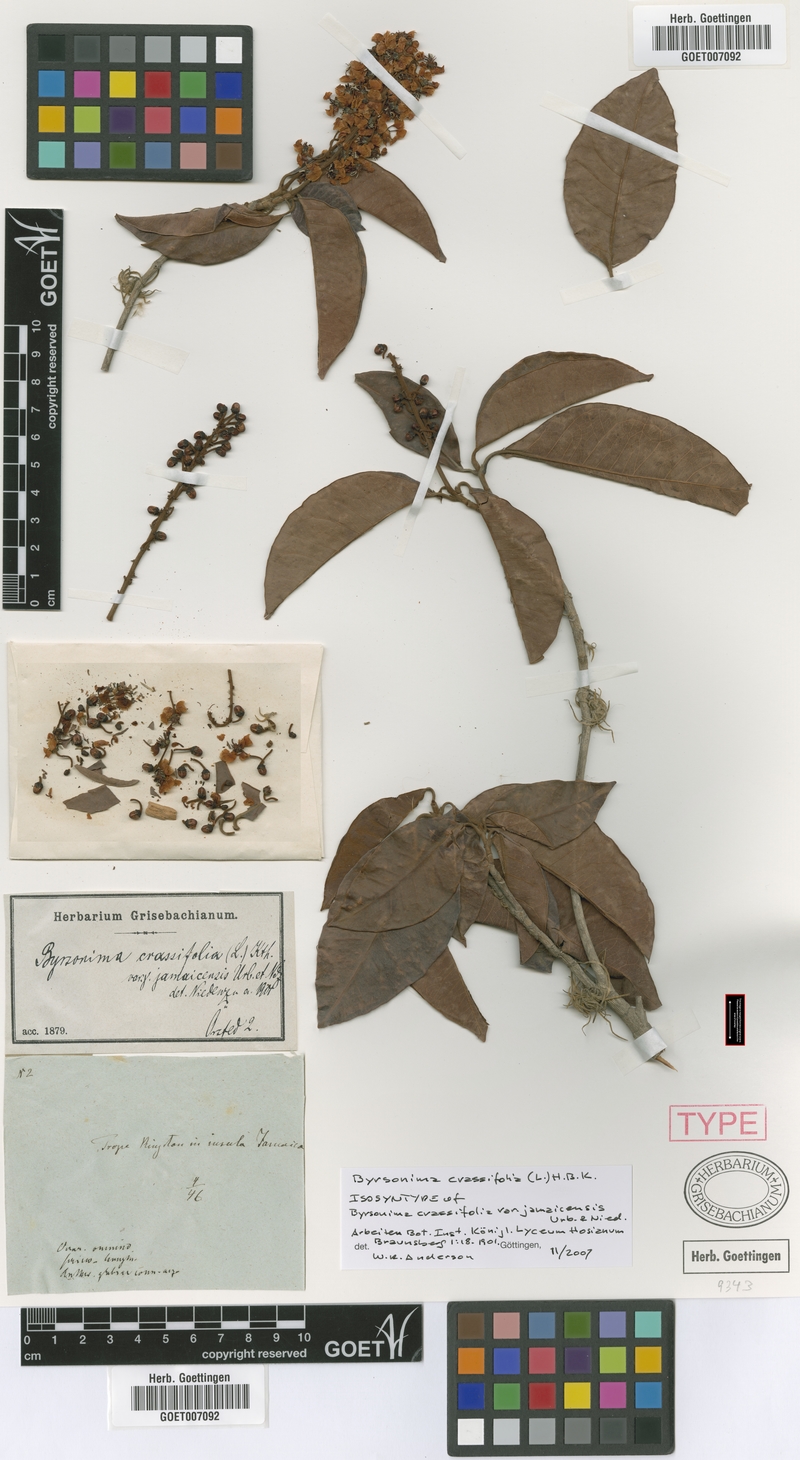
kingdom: Plantae
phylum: Tracheophyta
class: Magnoliopsida
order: Malpighiales
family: Malpighiaceae
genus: Byrsonima
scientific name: Byrsonima crassifolia
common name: Golden spoon
